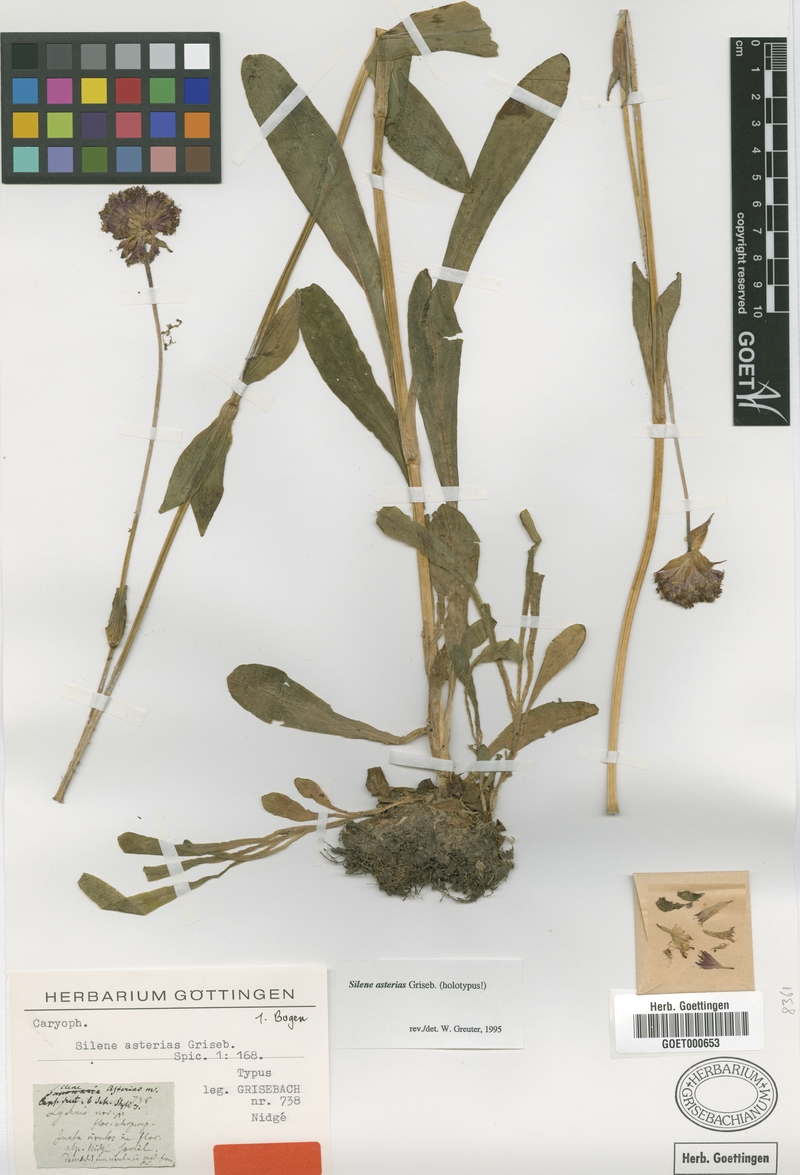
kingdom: Plantae
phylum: Tracheophyta
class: Magnoliopsida
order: Caryophyllales
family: Caryophyllaceae
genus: Viscaria
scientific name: Viscaria asterias
